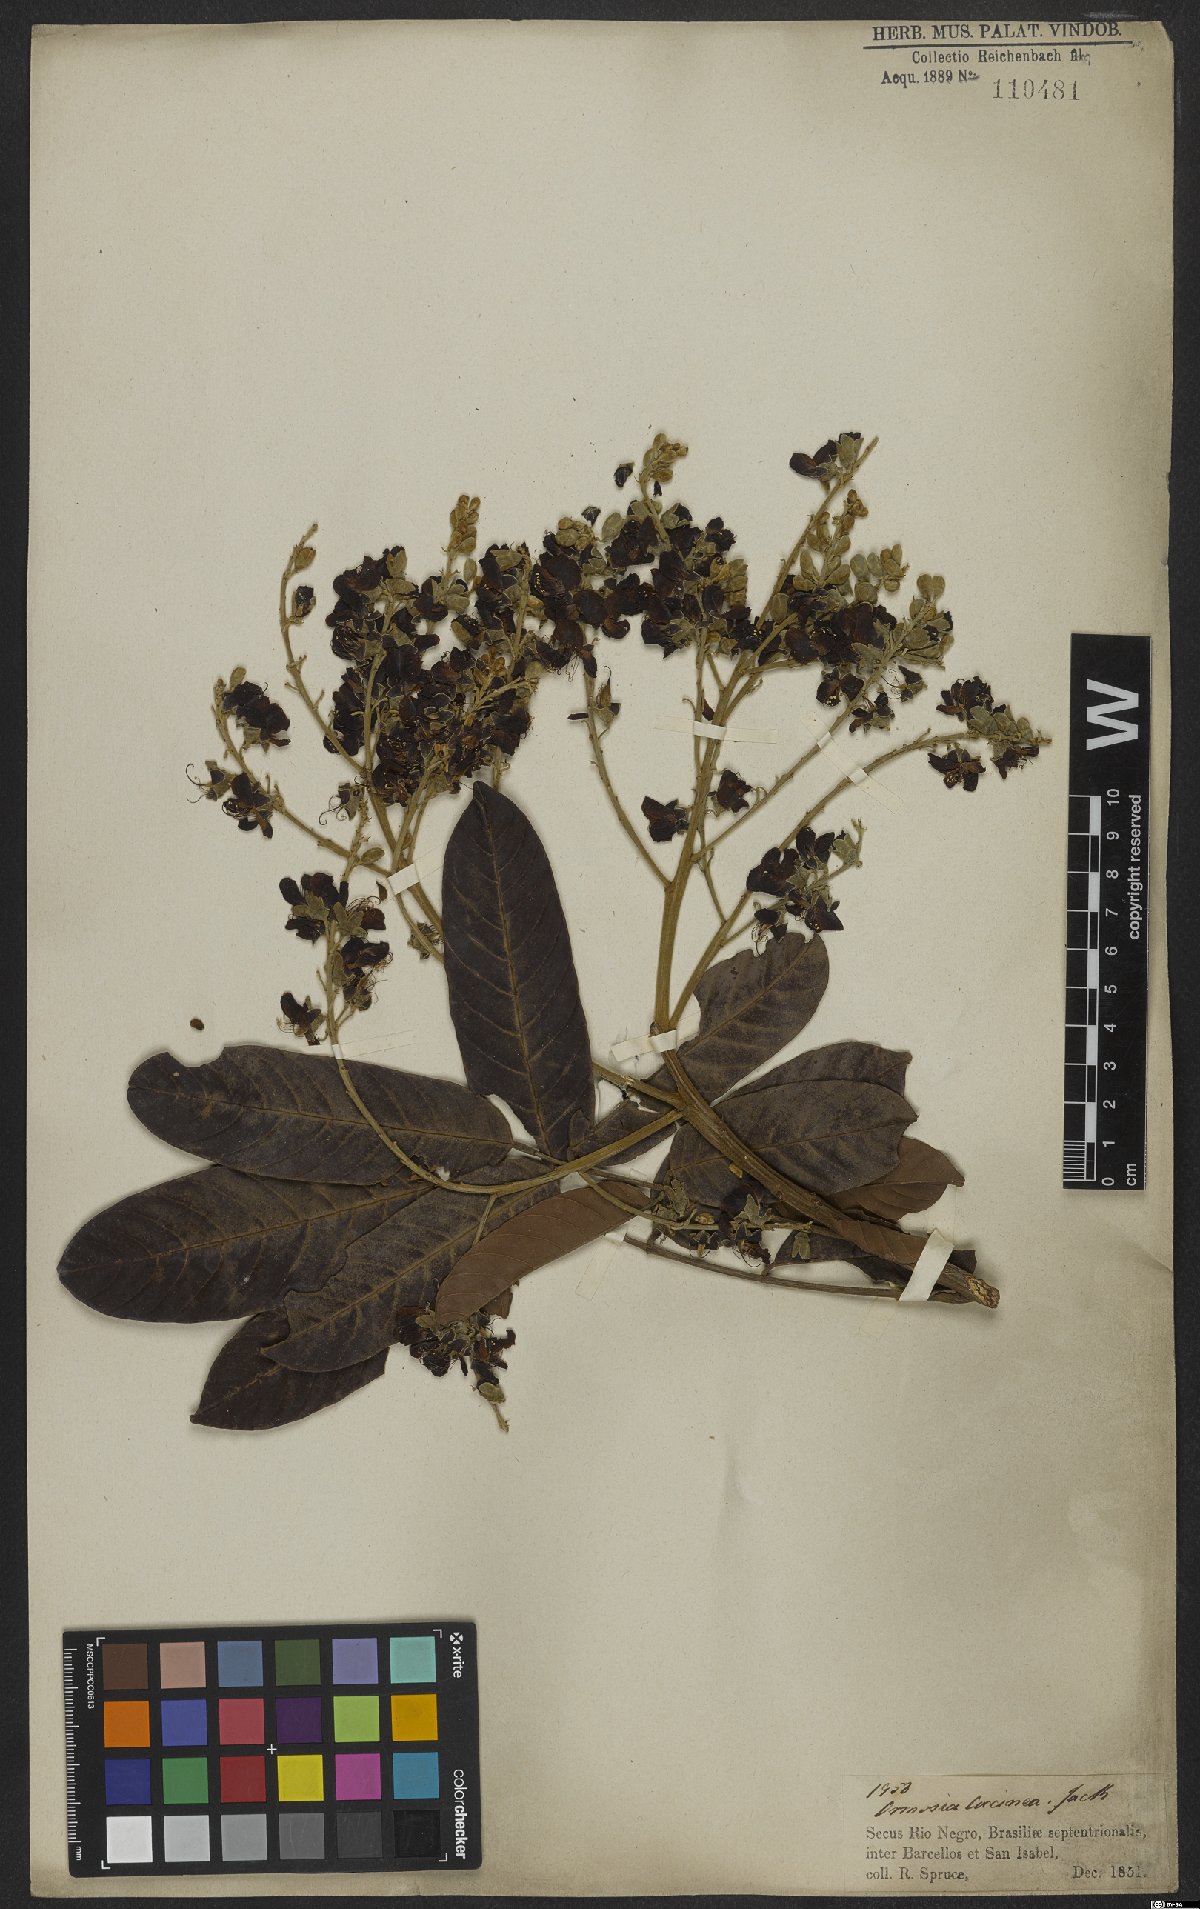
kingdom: Plantae
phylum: Tracheophyta
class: Magnoliopsida
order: Fabales
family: Fabaceae
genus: Ormosia
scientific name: Ormosia coccinea
